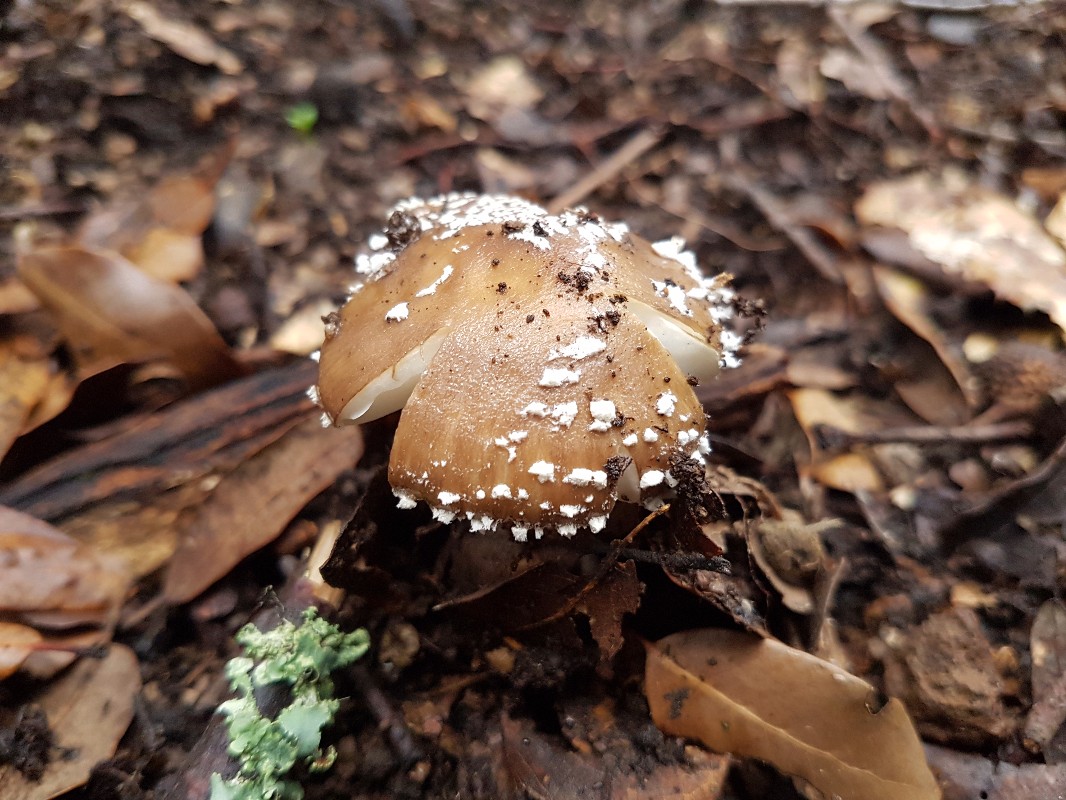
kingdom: Fungi
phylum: Basidiomycota
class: Agaricomycetes
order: Agaricales
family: Amanitaceae
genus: Amanita
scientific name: Amanita pantherina
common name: panter-fluesvamp
